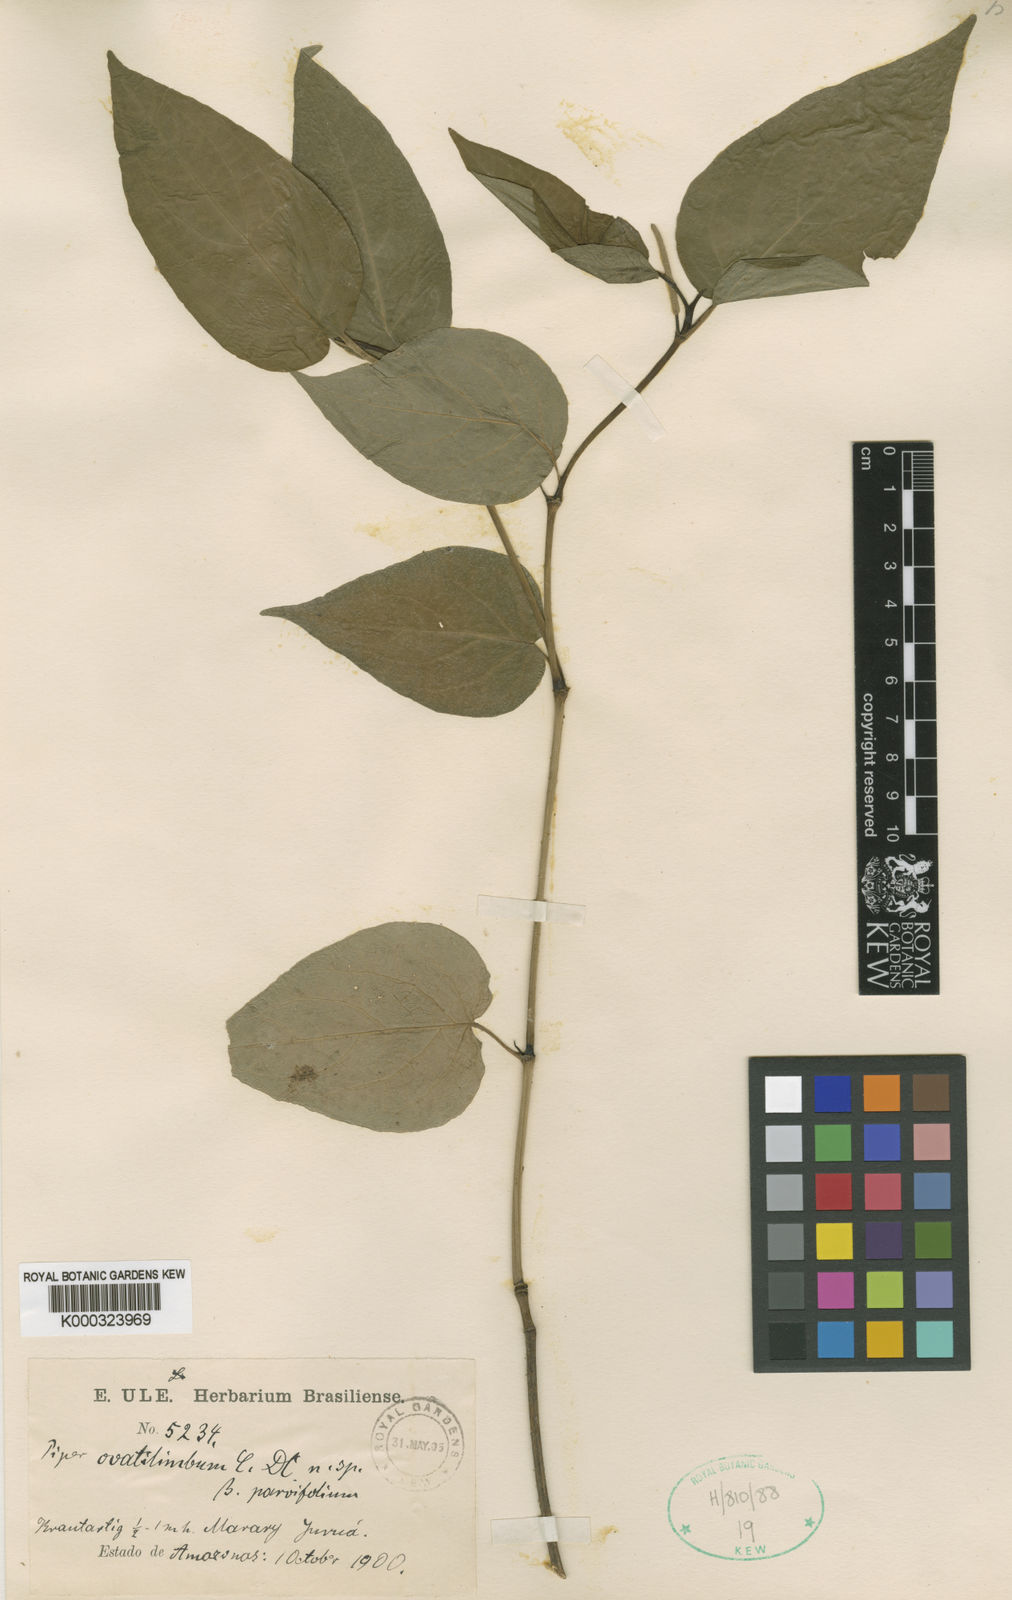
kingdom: Plantae
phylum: Tracheophyta
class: Magnoliopsida
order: Piperales
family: Piperaceae
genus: Piper
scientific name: Piper ovatilimbum
